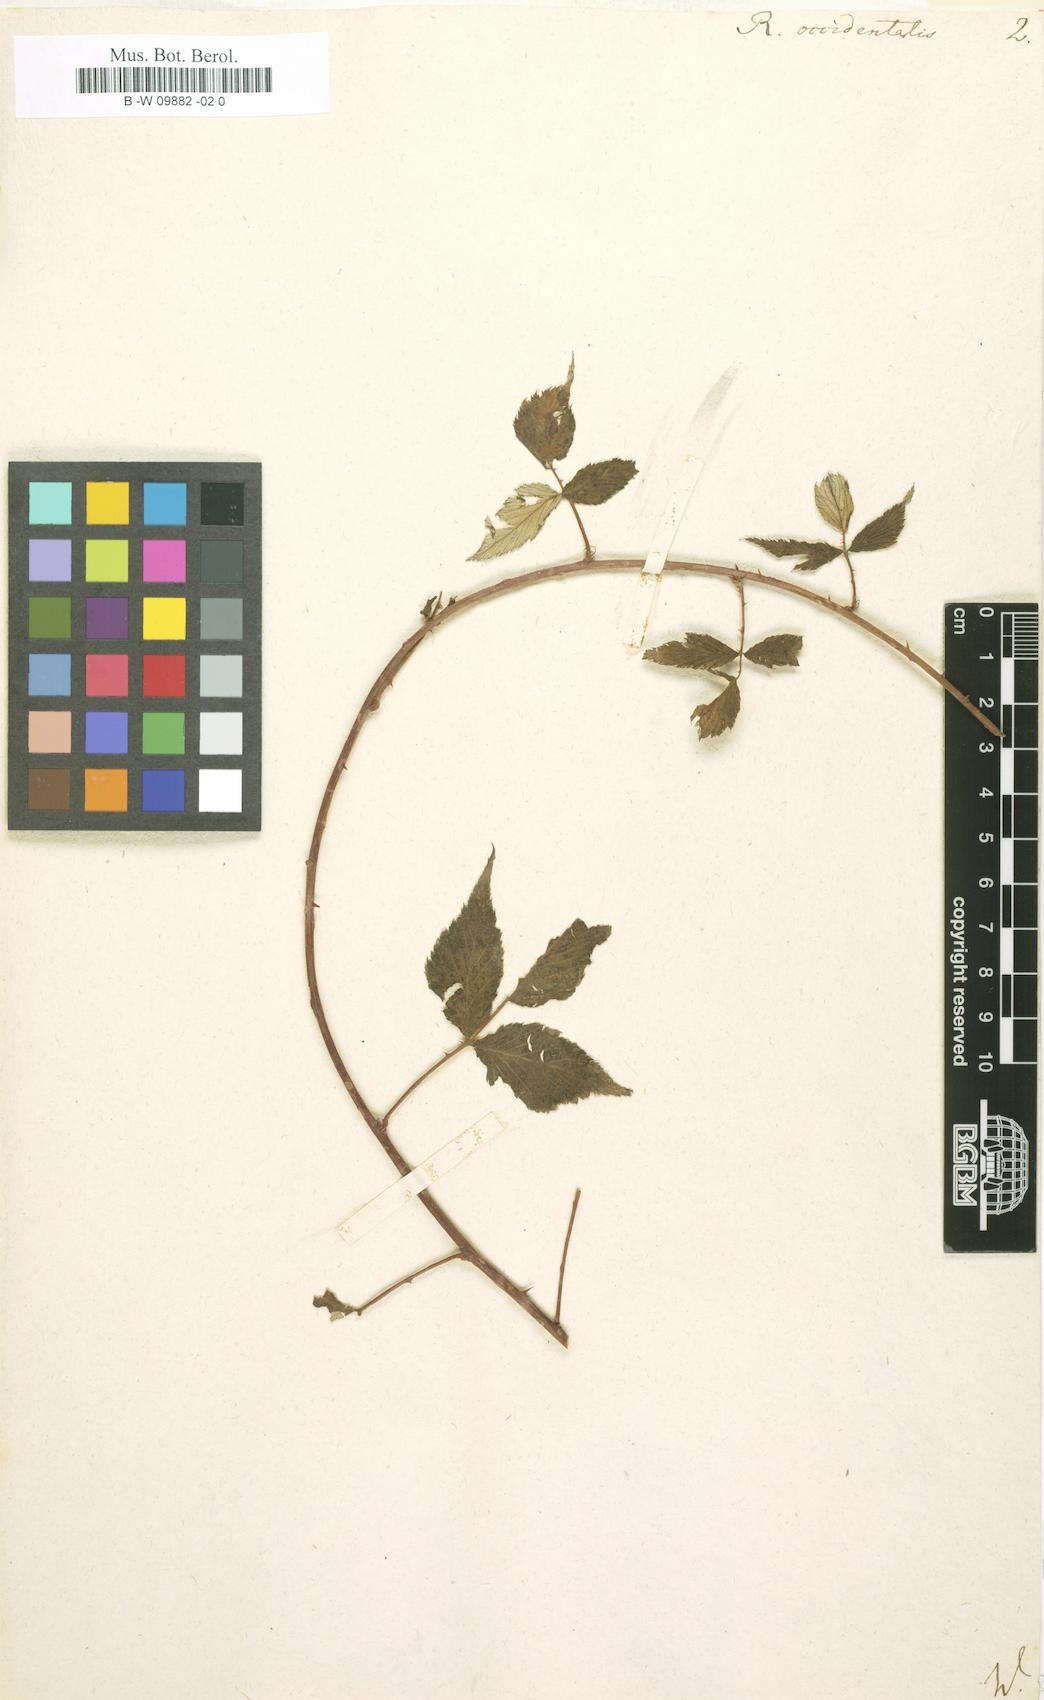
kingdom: Plantae
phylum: Tracheophyta
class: Magnoliopsida
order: Rosales
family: Rosaceae
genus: Rubus
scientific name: Rubus occidentalis
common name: Black raspberry
